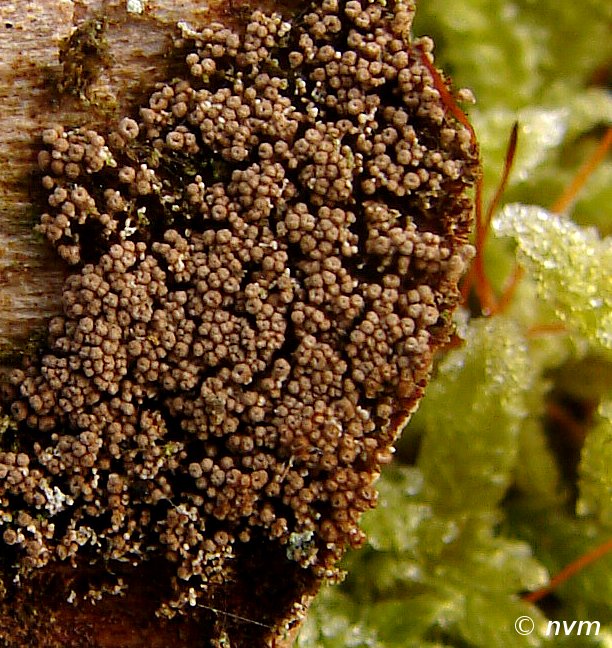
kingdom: Fungi
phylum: Basidiomycota
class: Agaricomycetes
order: Agaricales
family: Niaceae
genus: Merismodes
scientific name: Merismodes anomala
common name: almindelig læderskål
